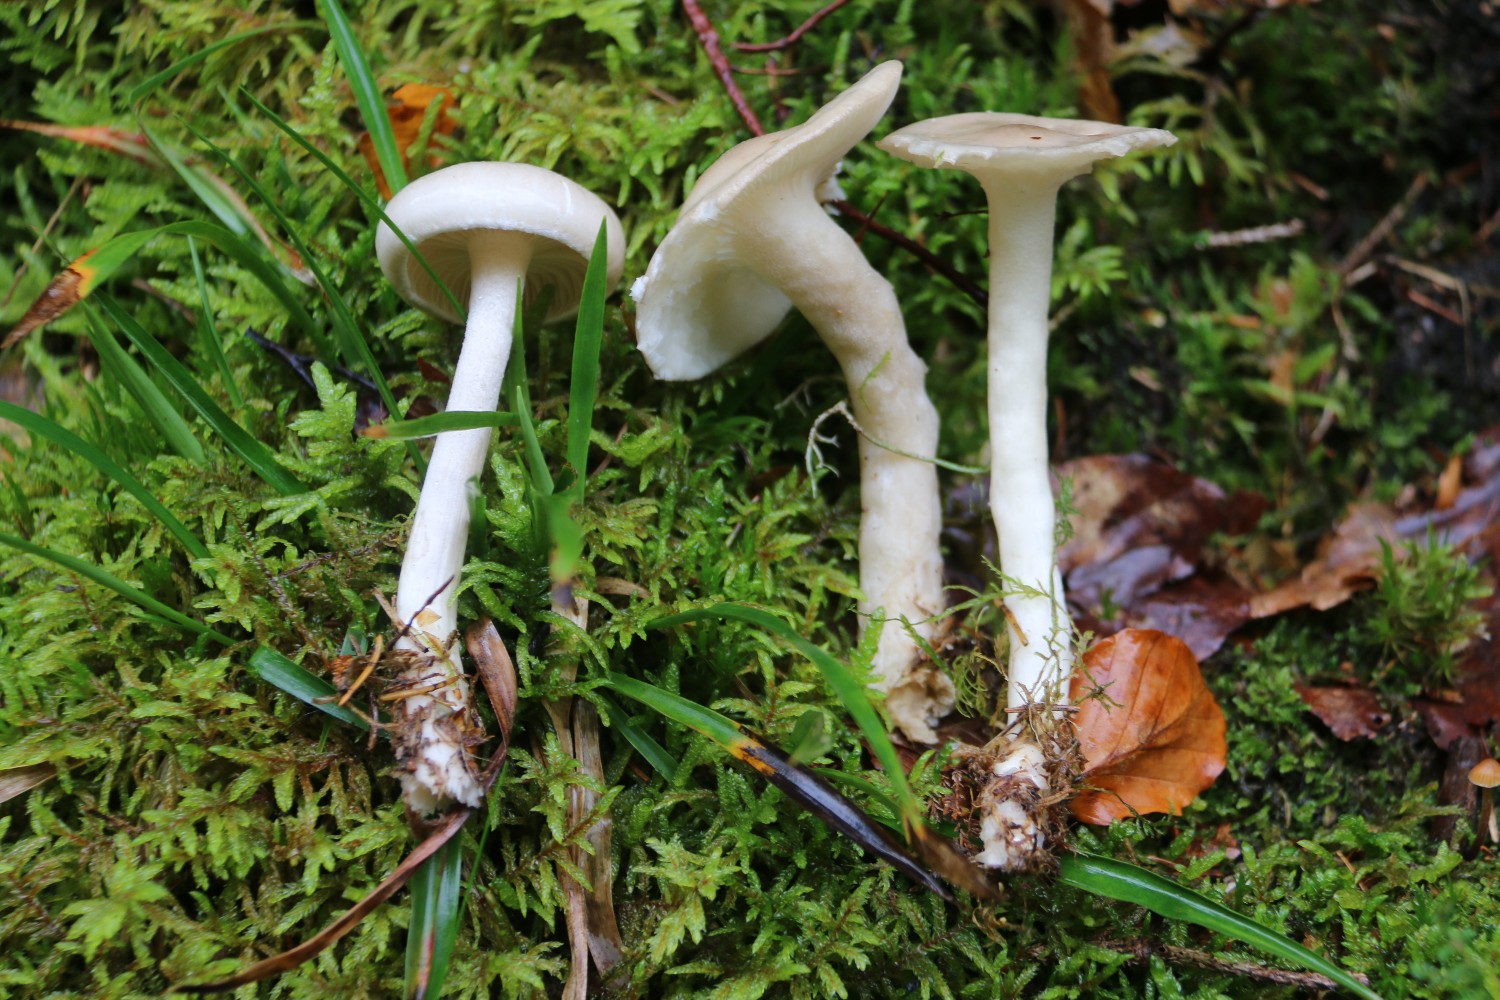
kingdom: Fungi
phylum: Basidiomycota
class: Agaricomycetes
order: Agaricales
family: Hygrophoraceae
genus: Hygrophorus
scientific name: Hygrophorus agathosmus
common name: vellugtende sneglehat
